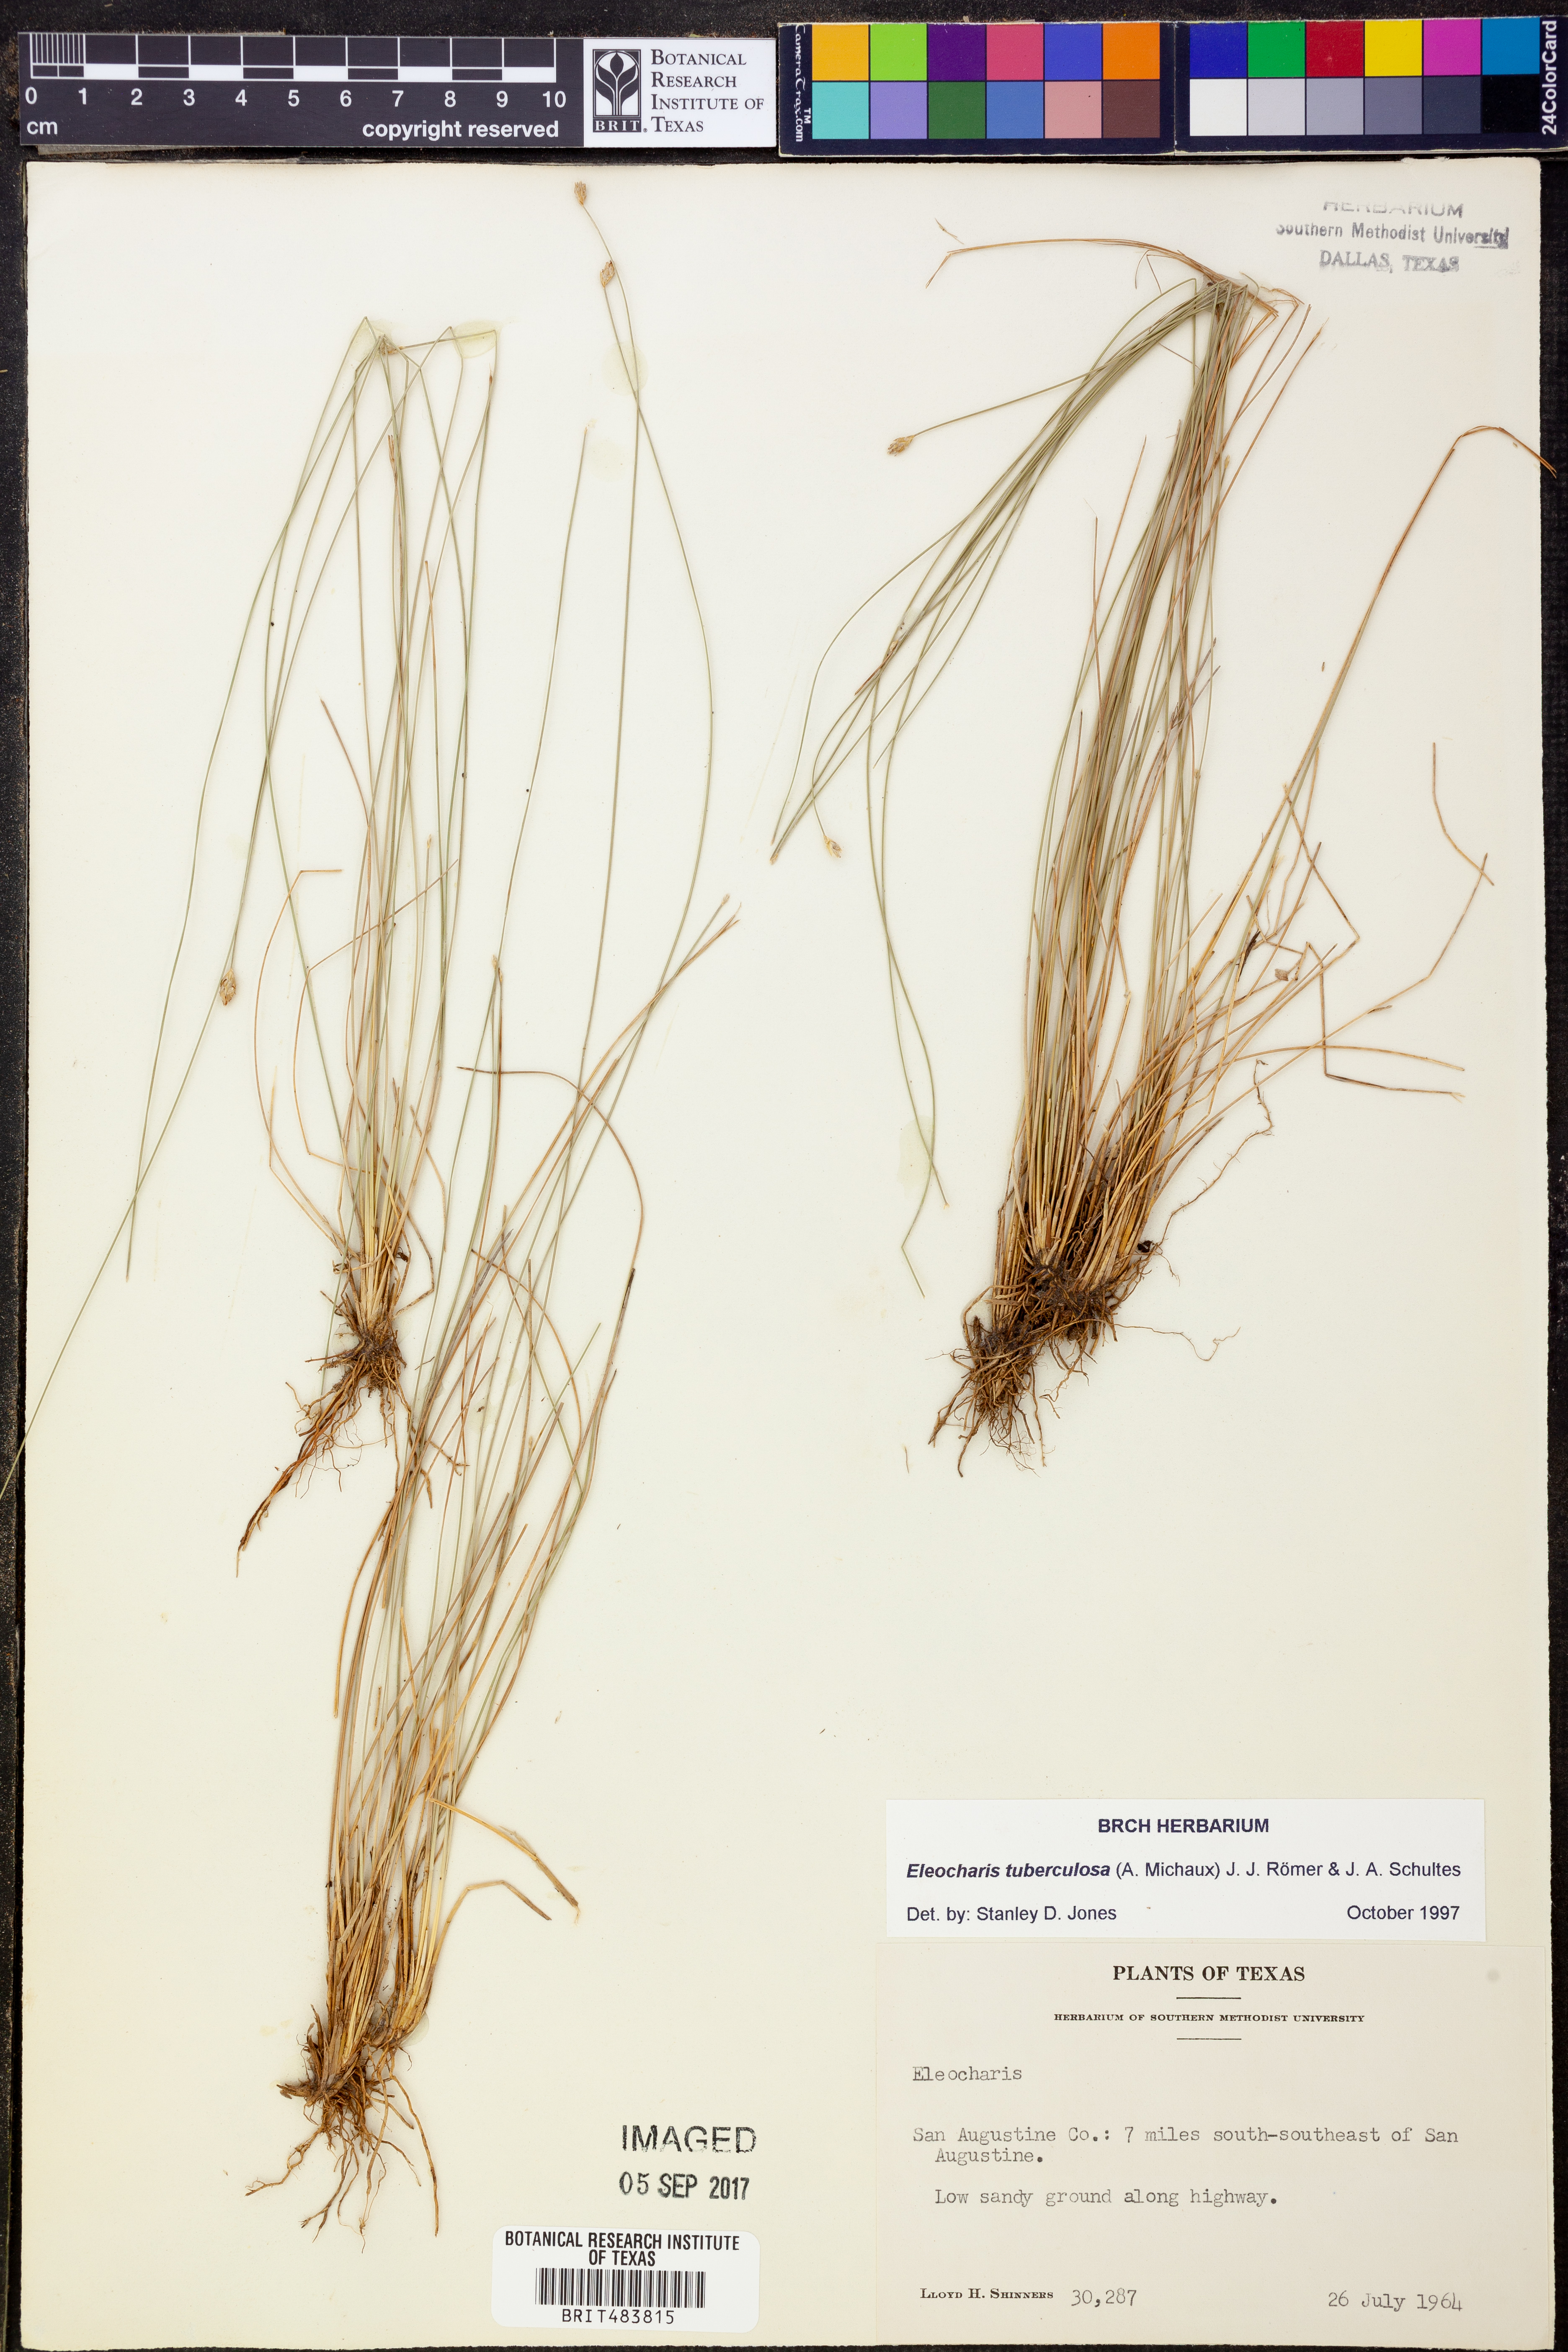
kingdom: Plantae
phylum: Tracheophyta
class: Liliopsida
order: Poales
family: Cyperaceae
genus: Eleocharis
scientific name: Eleocharis tuberculosa
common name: Cone-cup spikerush
